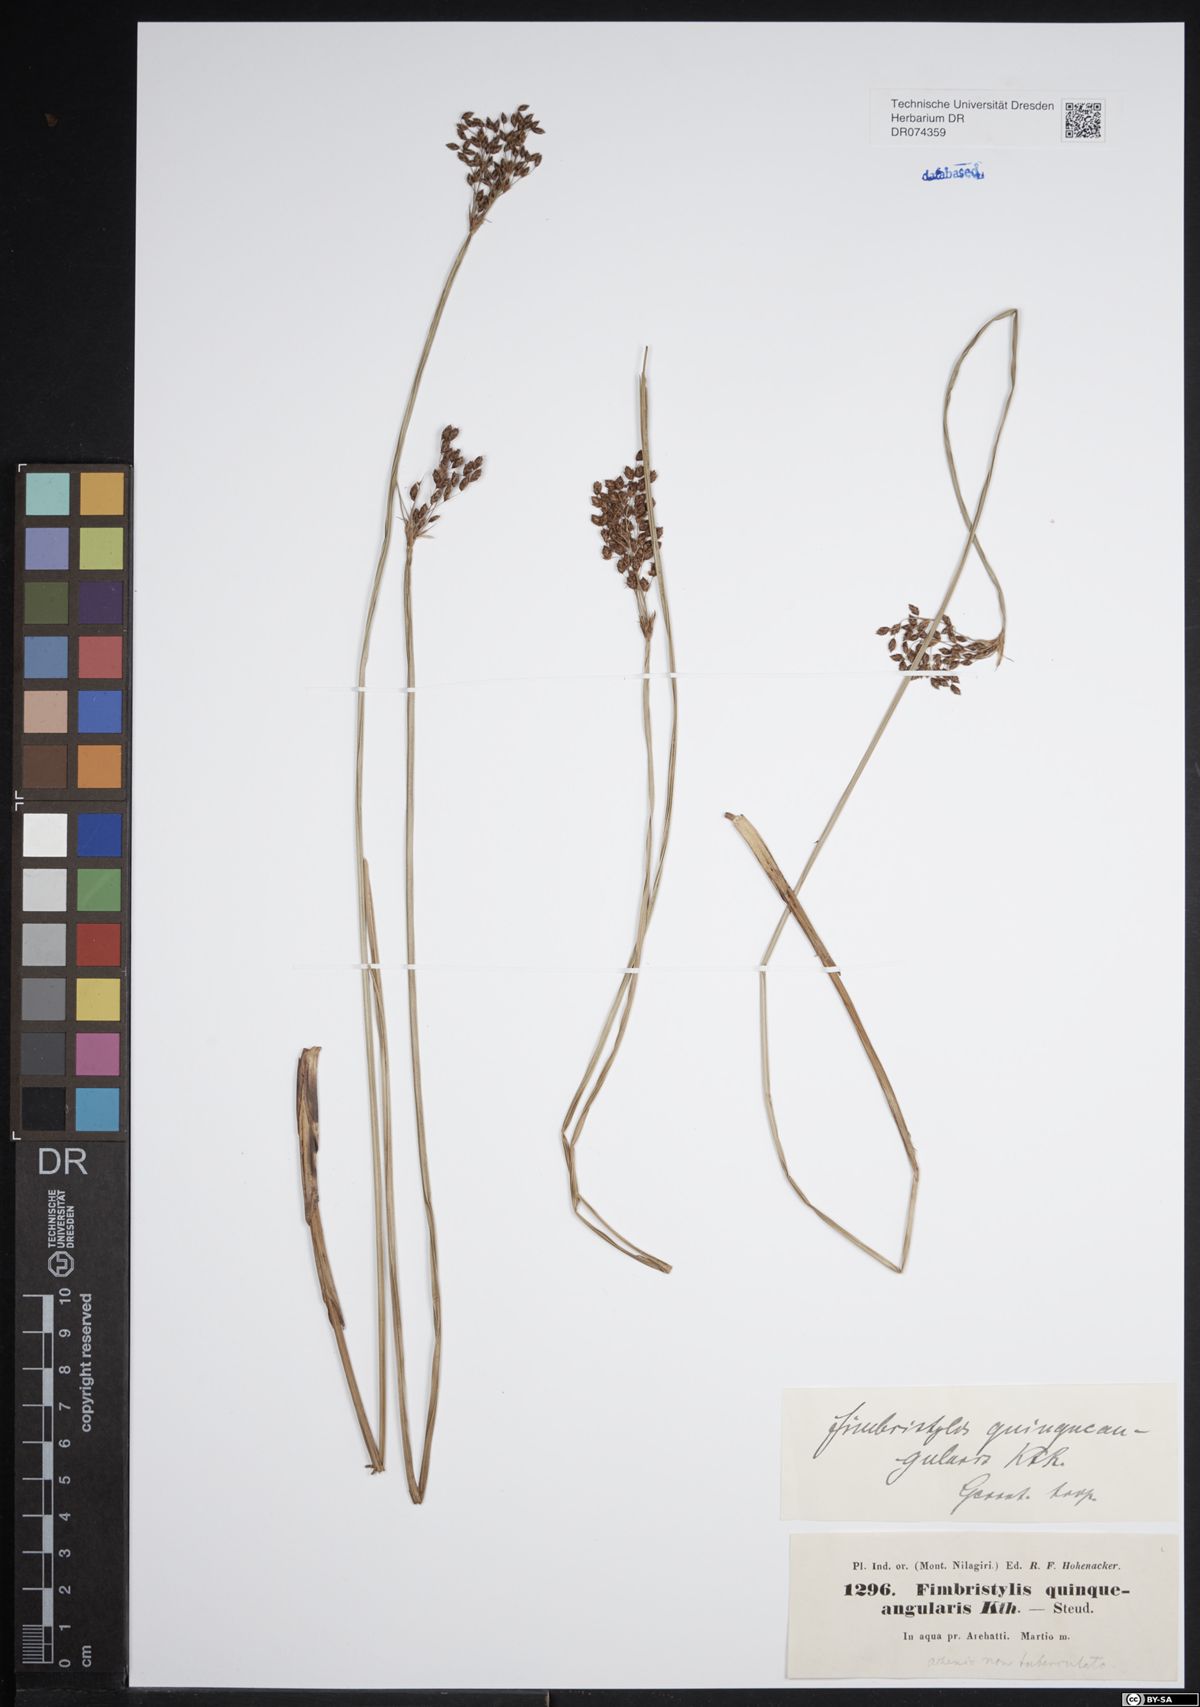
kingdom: Plantae
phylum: Tracheophyta
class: Liliopsida
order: Poales
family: Cyperaceae
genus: Fimbristylis
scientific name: Fimbristylis quinquangularis
